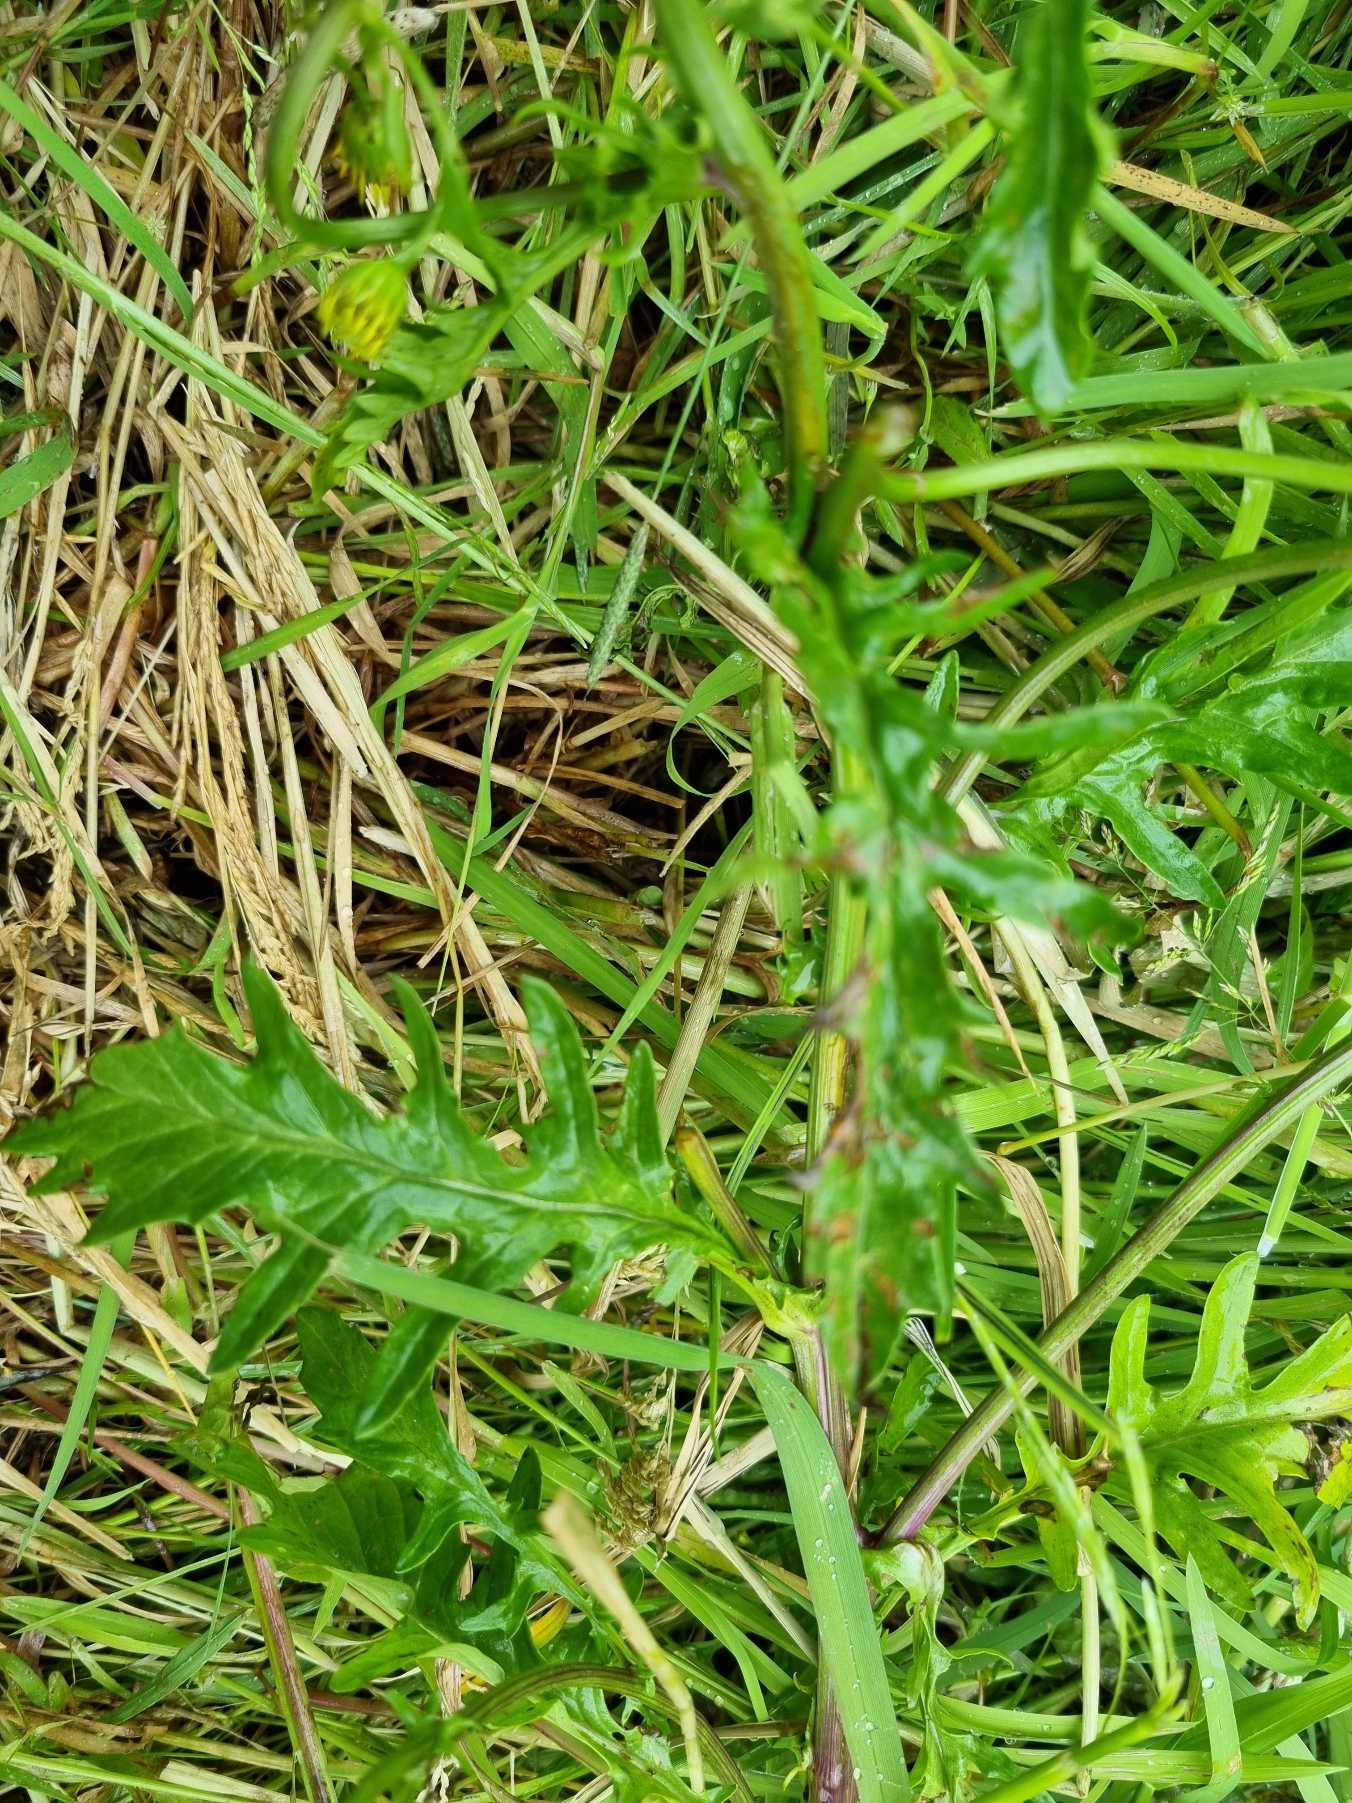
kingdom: Plantae
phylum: Tracheophyta
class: Magnoliopsida
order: Asterales
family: Asteraceae
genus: Jacobaea
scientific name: Jacobaea aquatica
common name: Vand-brandbæger
